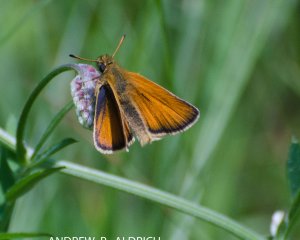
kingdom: Animalia
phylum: Arthropoda
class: Insecta
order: Lepidoptera
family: Hesperiidae
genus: Thymelicus
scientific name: Thymelicus lineola
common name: European Skipper
